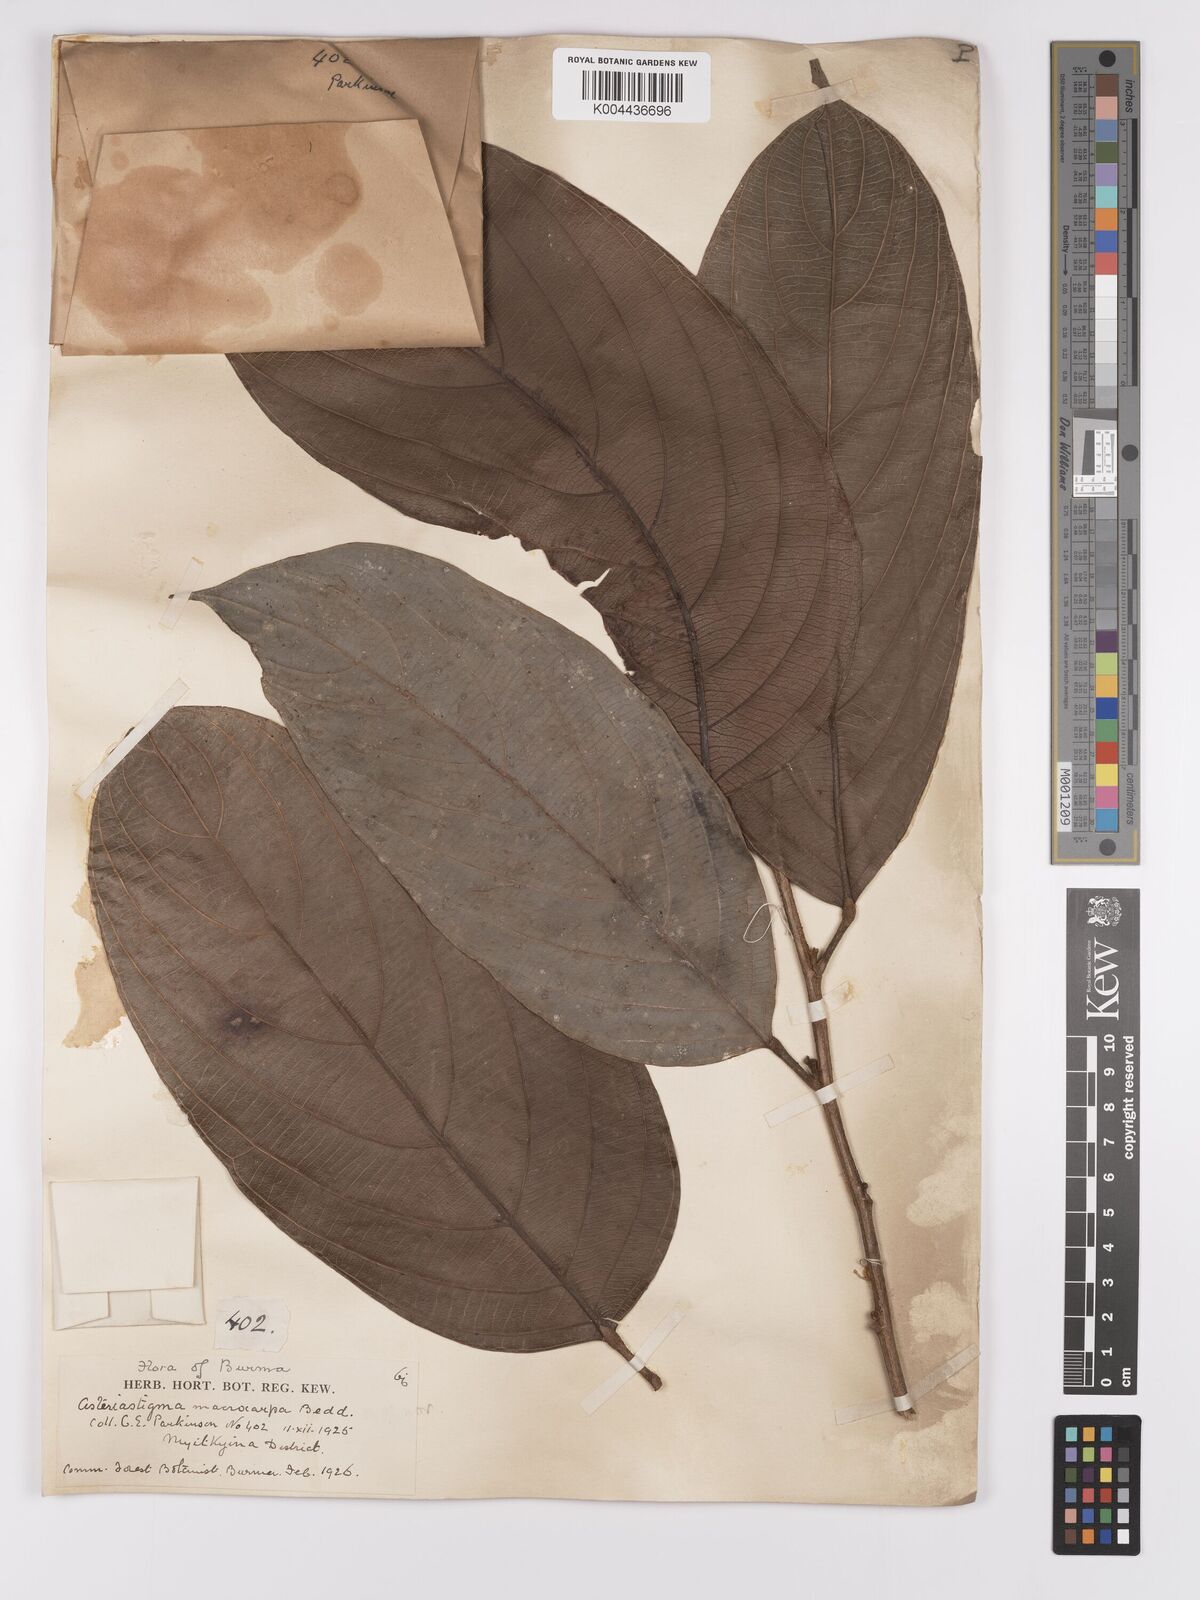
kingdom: Plantae
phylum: Tracheophyta
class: Magnoliopsida
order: Malpighiales
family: Achariaceae
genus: Hydnocarpus
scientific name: Hydnocarpus macrocarpus
